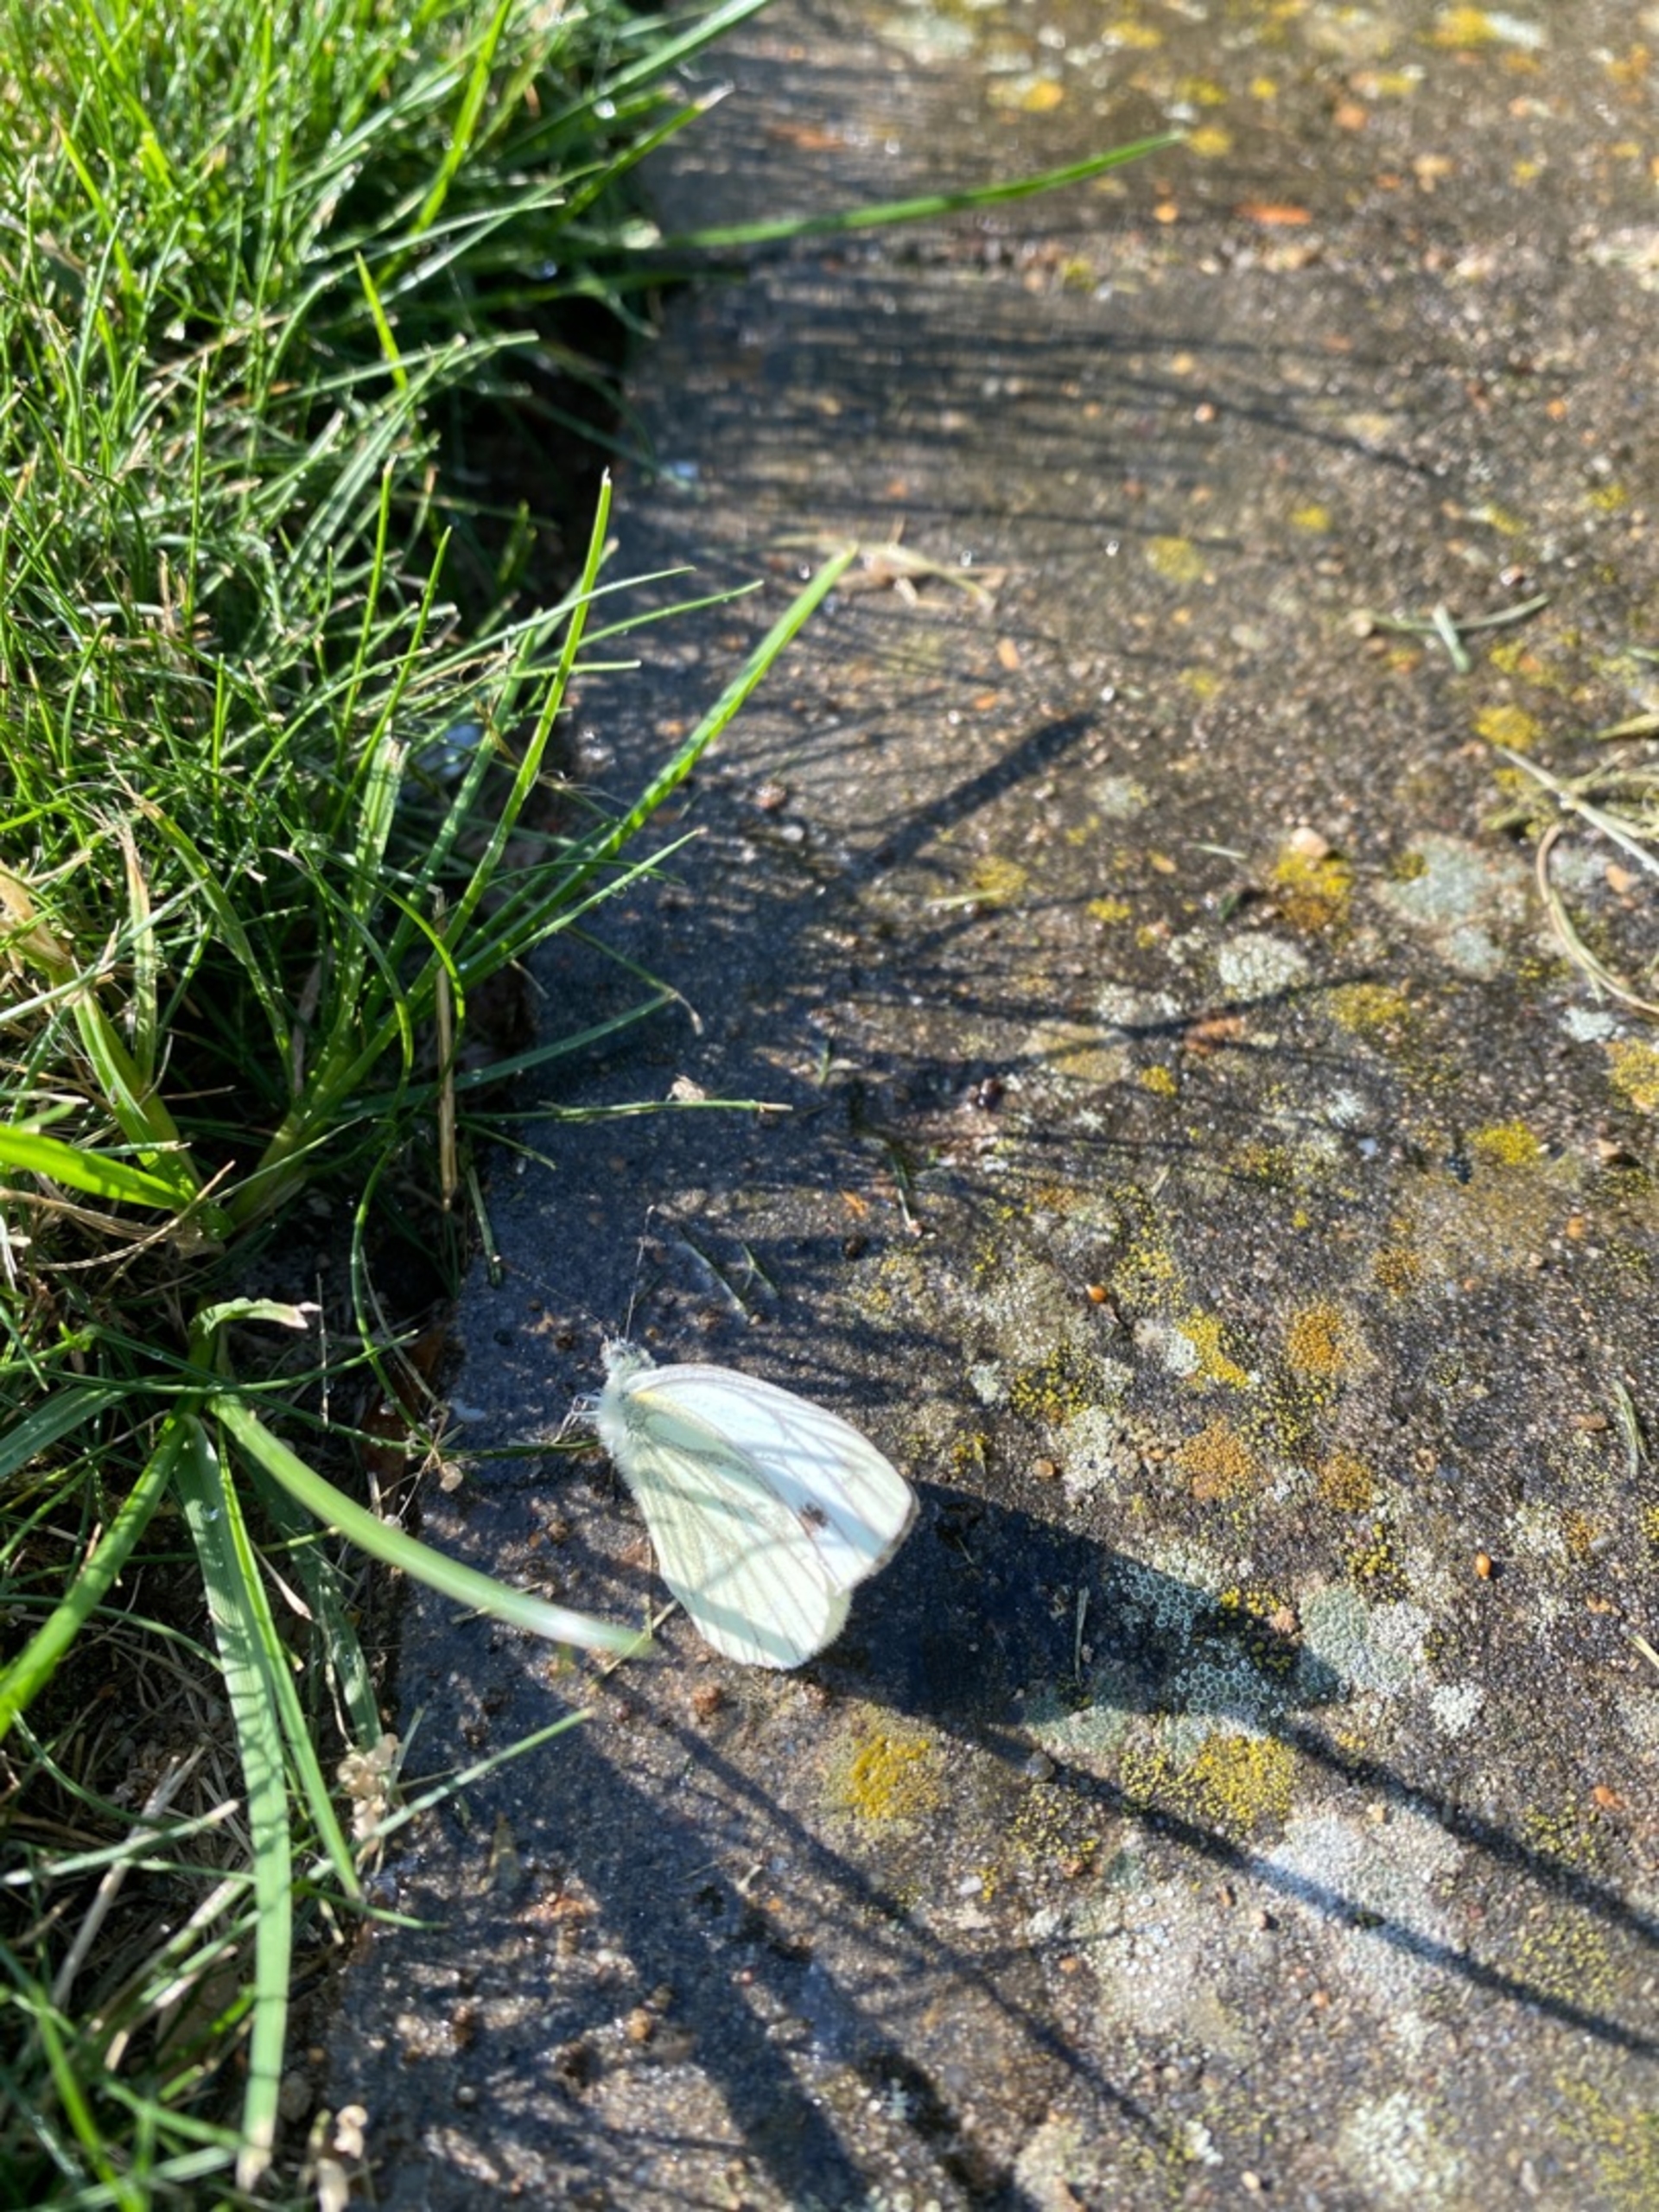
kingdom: Animalia
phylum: Arthropoda
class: Insecta
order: Lepidoptera
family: Pieridae
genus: Pieris
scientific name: Pieris napi
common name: Grønåret kålsommerfugl
